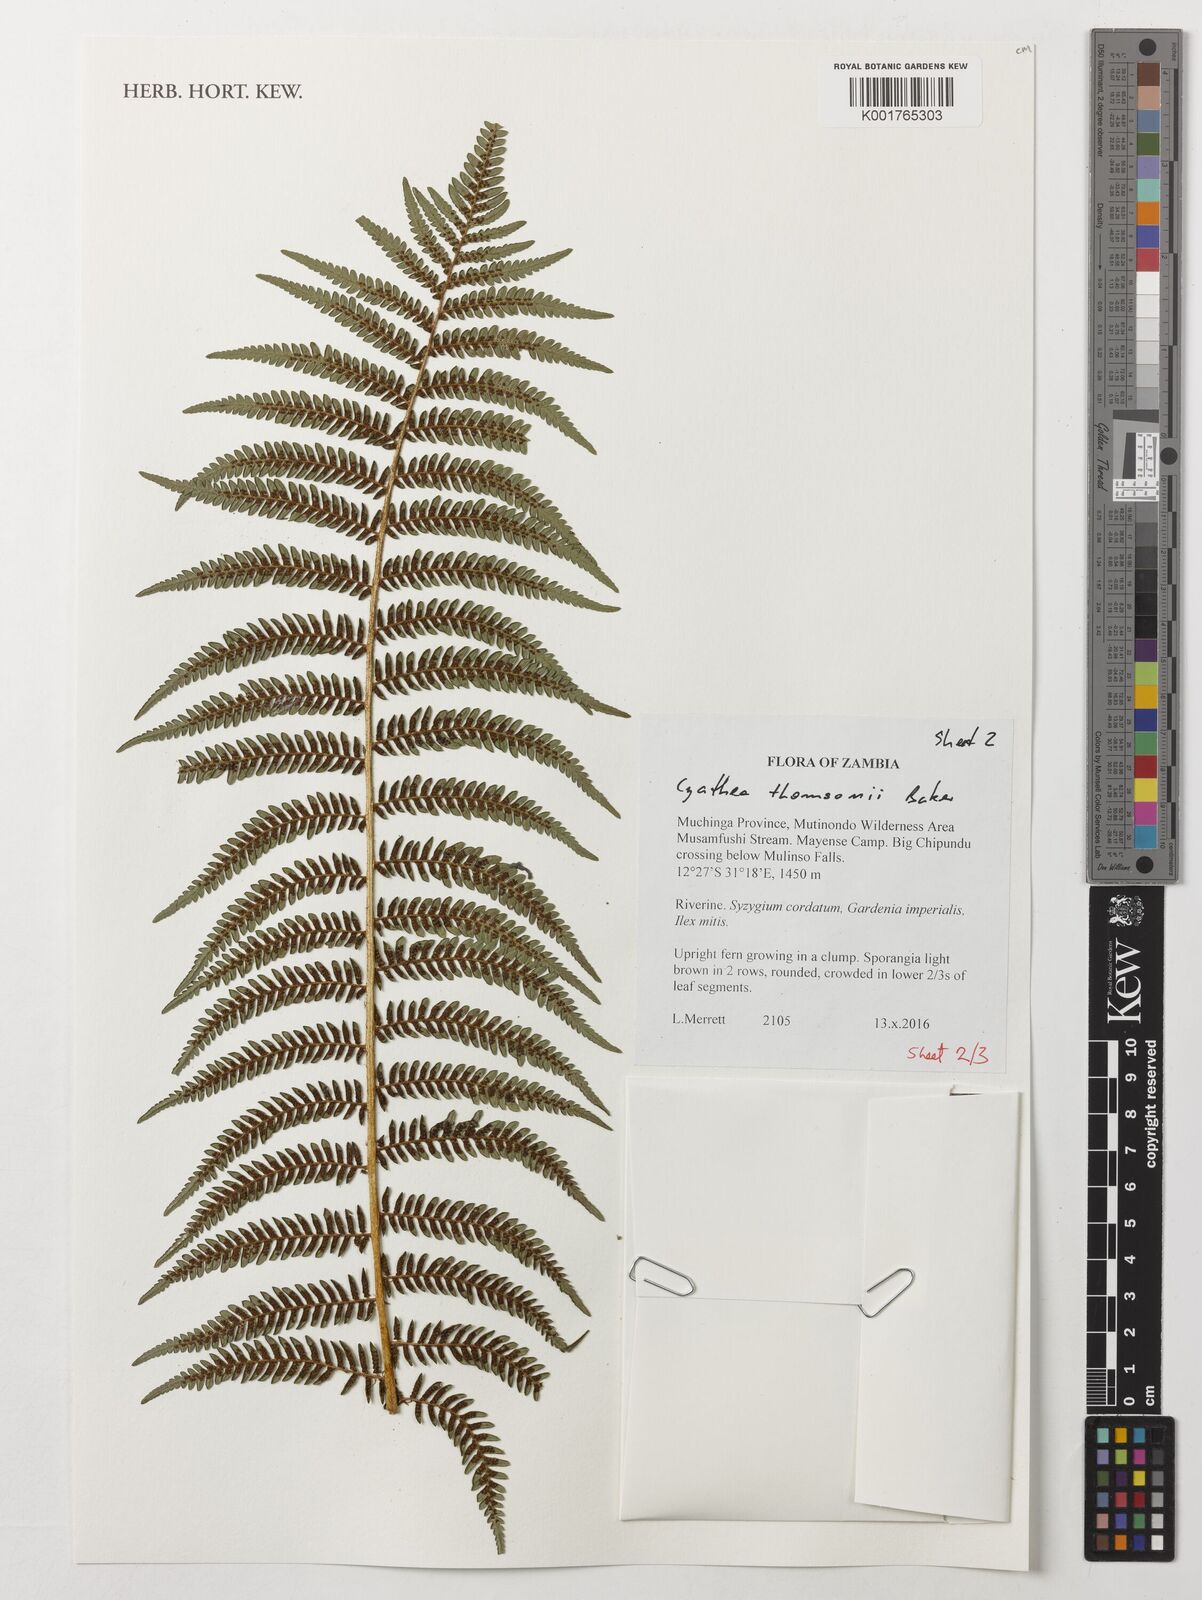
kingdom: Plantae
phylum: Tracheophyta
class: Polypodiopsida
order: Cyatheales
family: Cyatheaceae
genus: Alsophila
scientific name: Alsophila thomsonii
